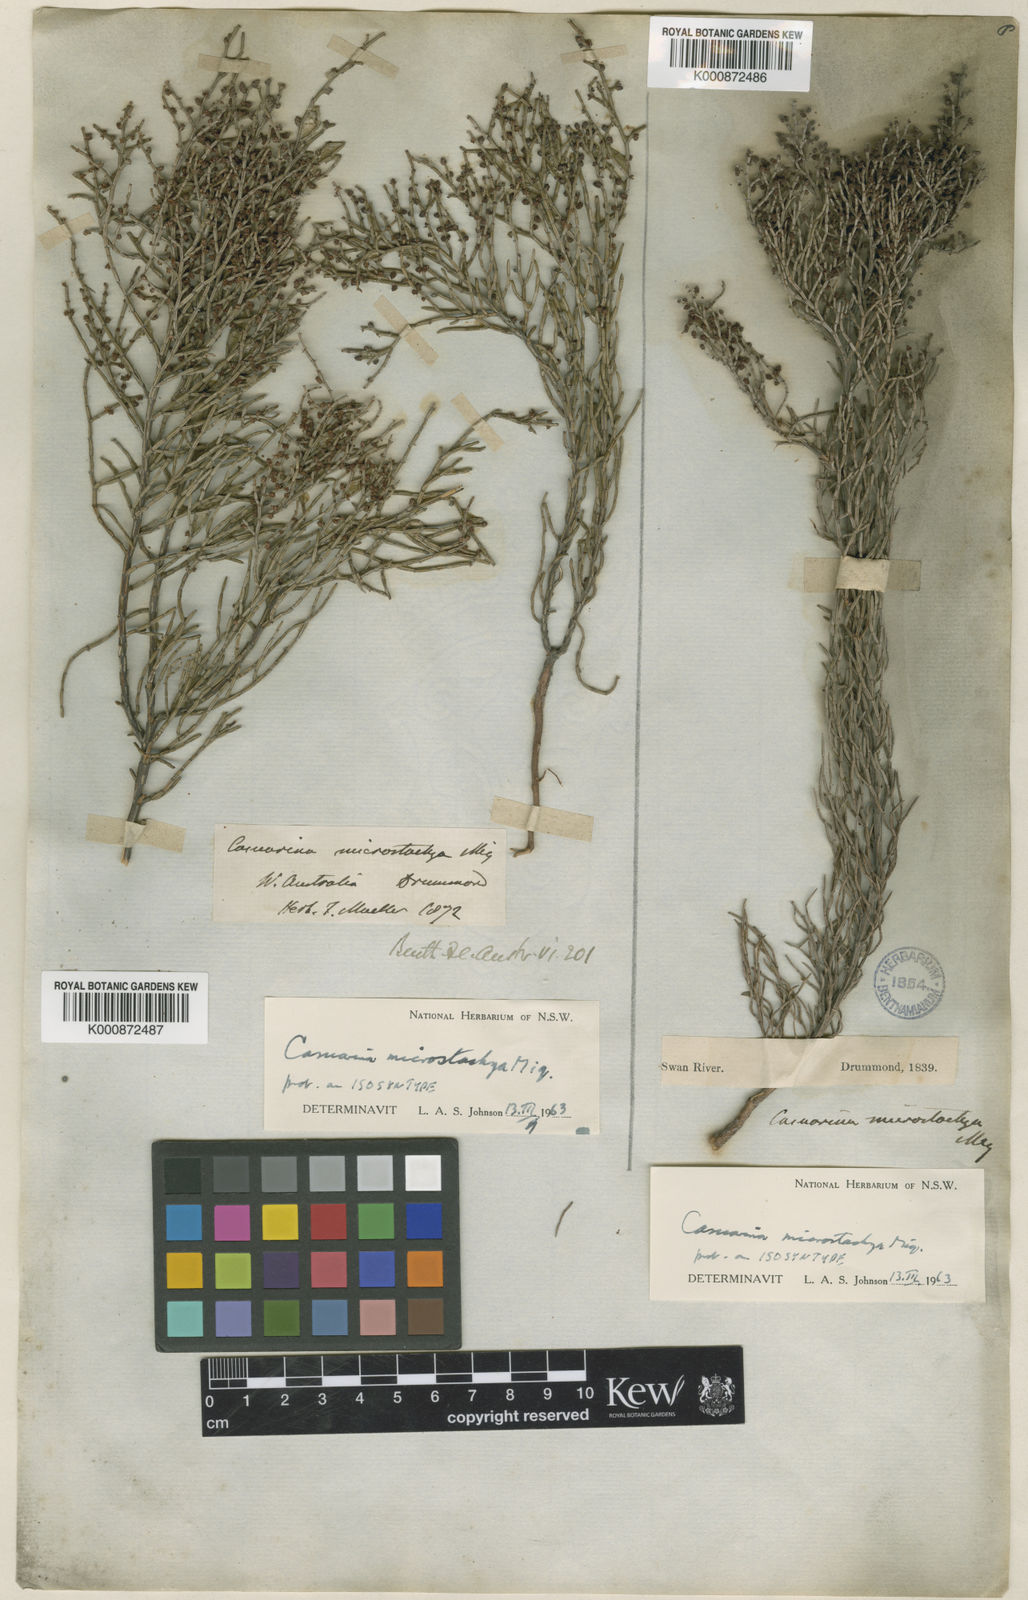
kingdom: Plantae
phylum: Tracheophyta
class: Magnoliopsida
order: Fagales
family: Casuarinaceae
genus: Allocasuarina
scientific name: Allocasuarina microstachya
